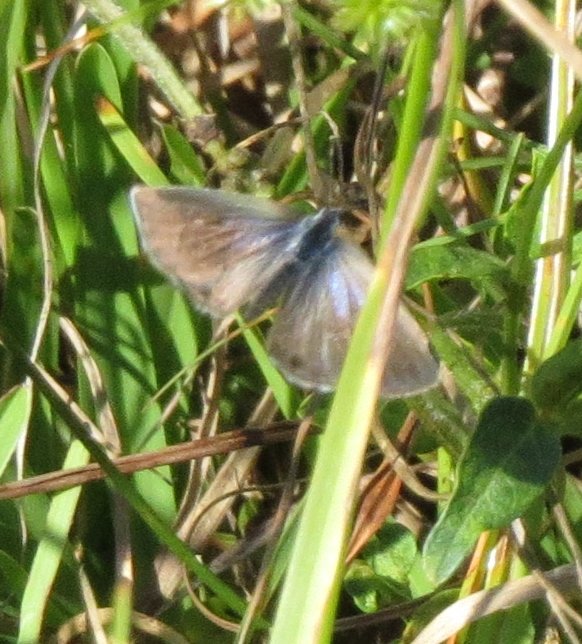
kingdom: Animalia
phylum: Arthropoda
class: Insecta
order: Lepidoptera
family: Lycaenidae
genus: Hemiargus
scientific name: Hemiargus ceraunus
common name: Ceraunus Blue
